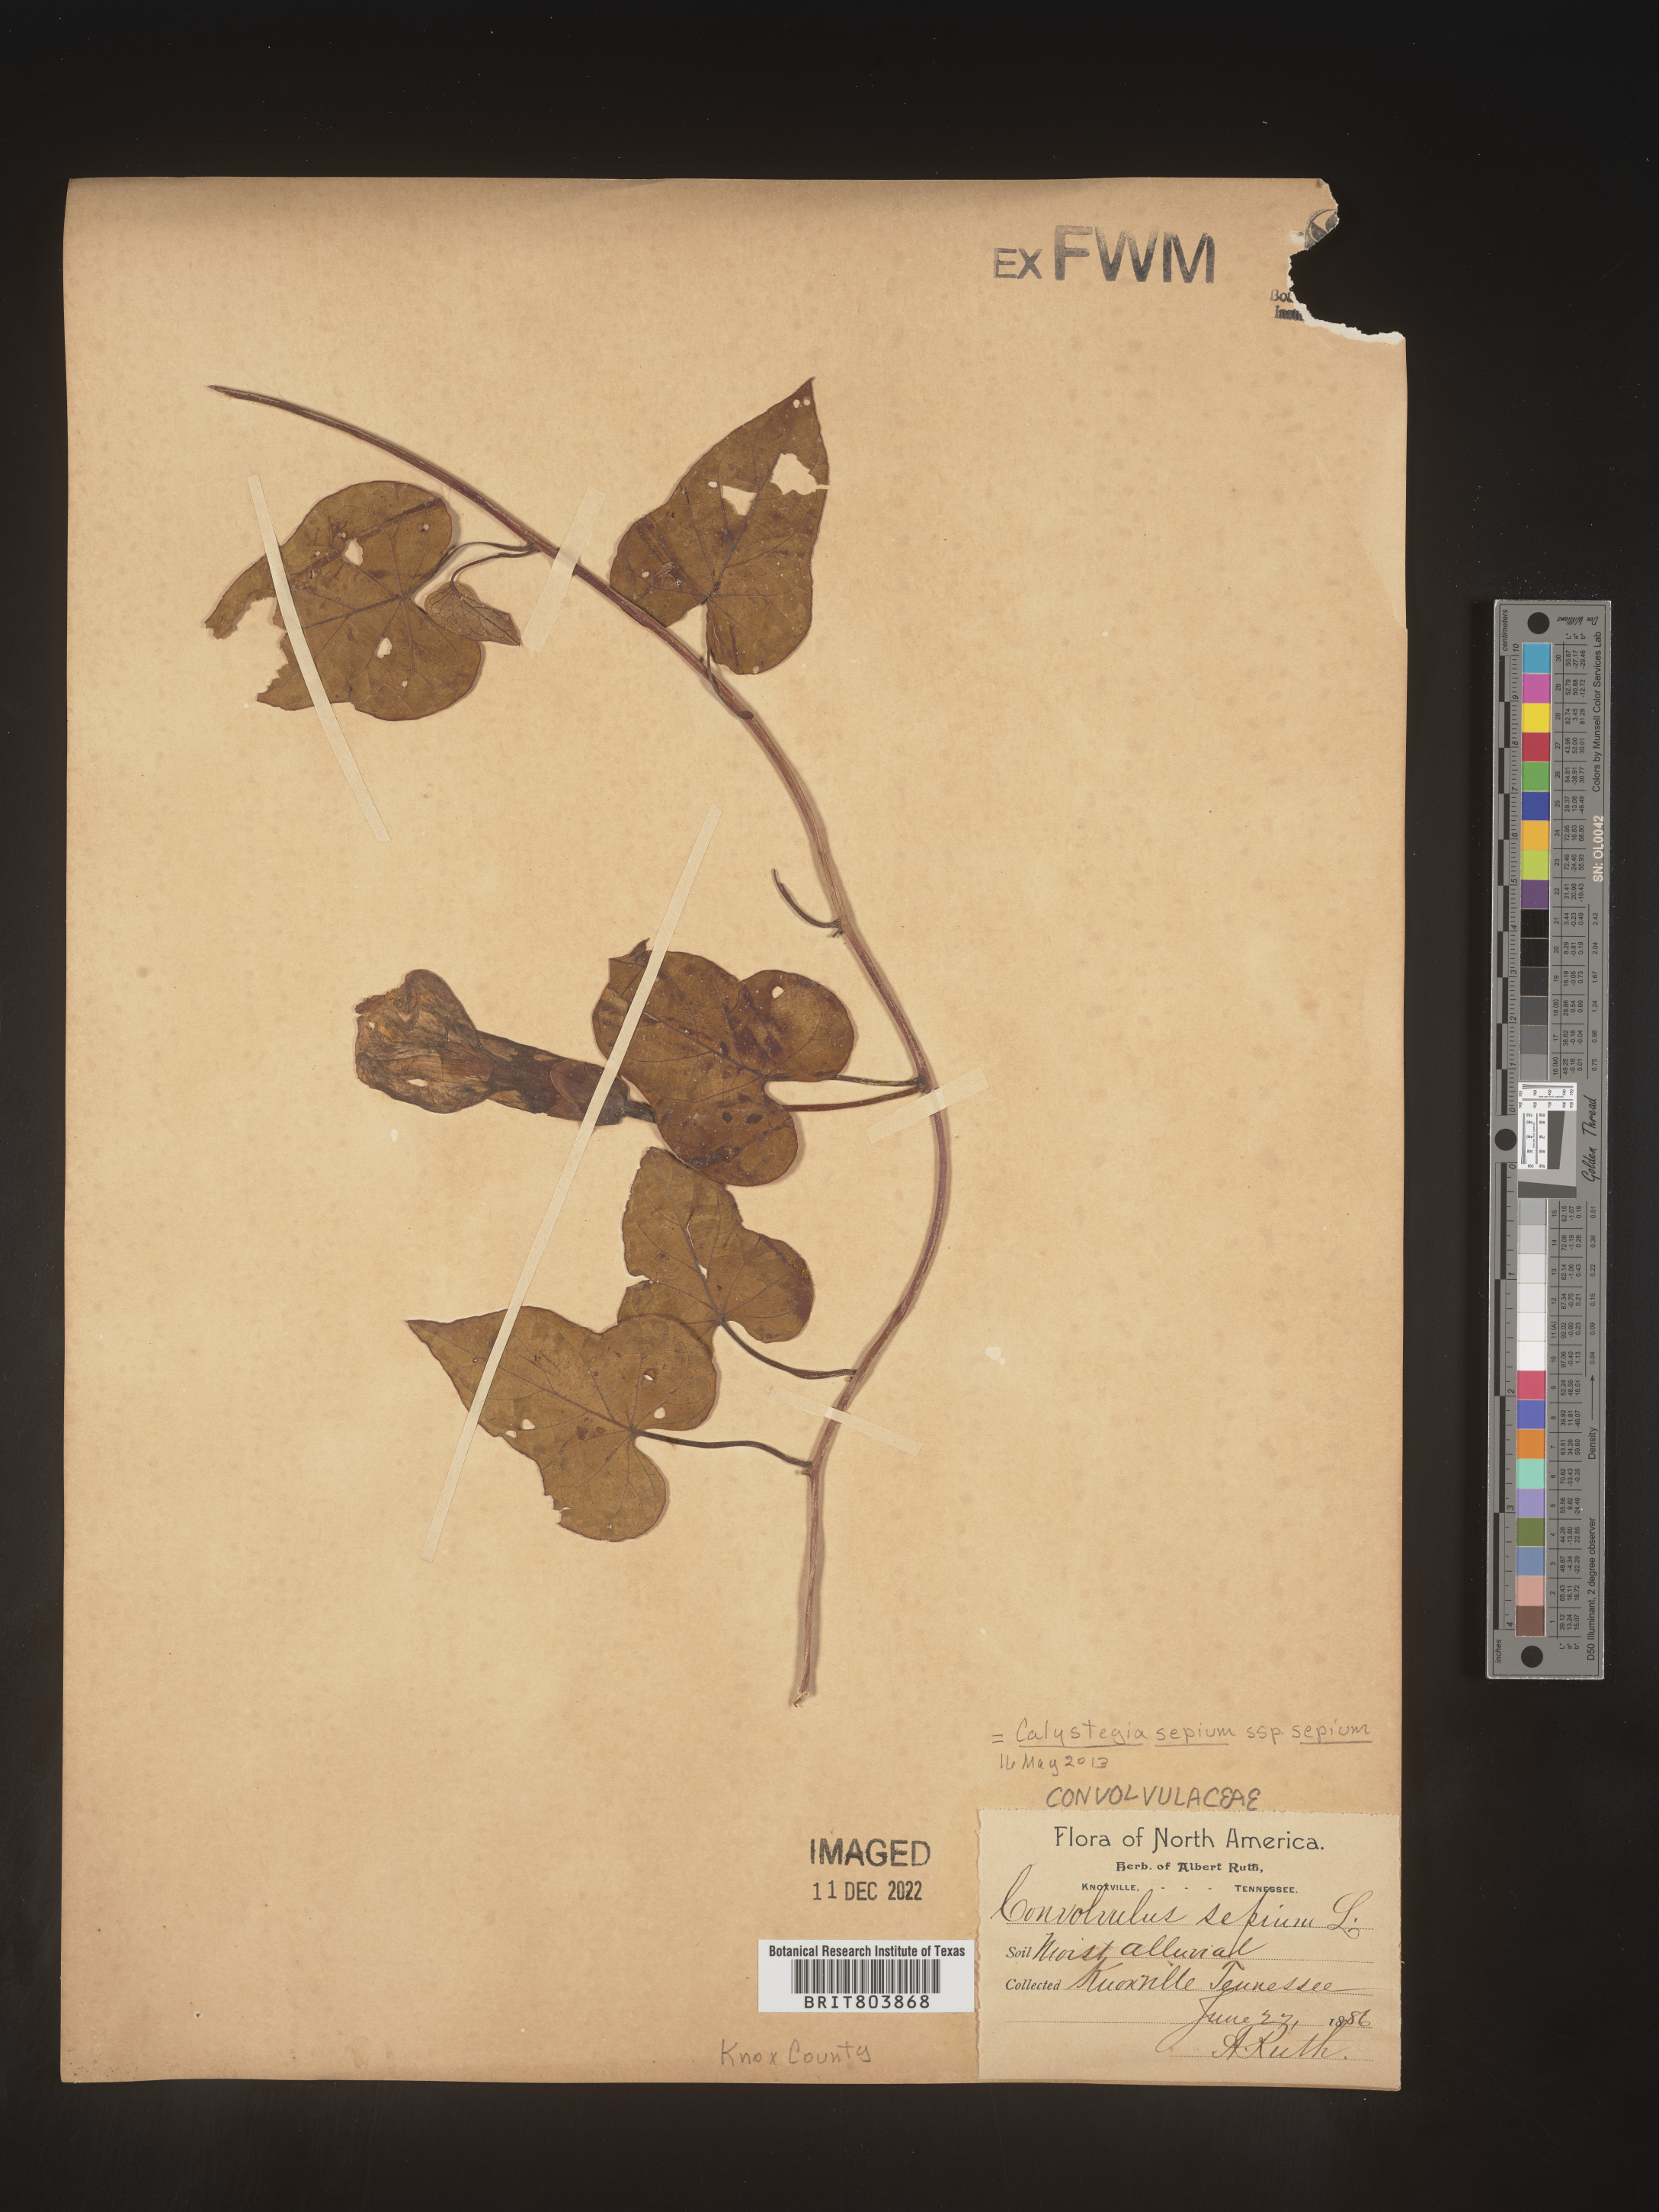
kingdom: Plantae
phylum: Tracheophyta
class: Magnoliopsida
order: Solanales
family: Convolvulaceae
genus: Calystegia
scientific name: Calystegia sepium
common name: Hedge bindweed
